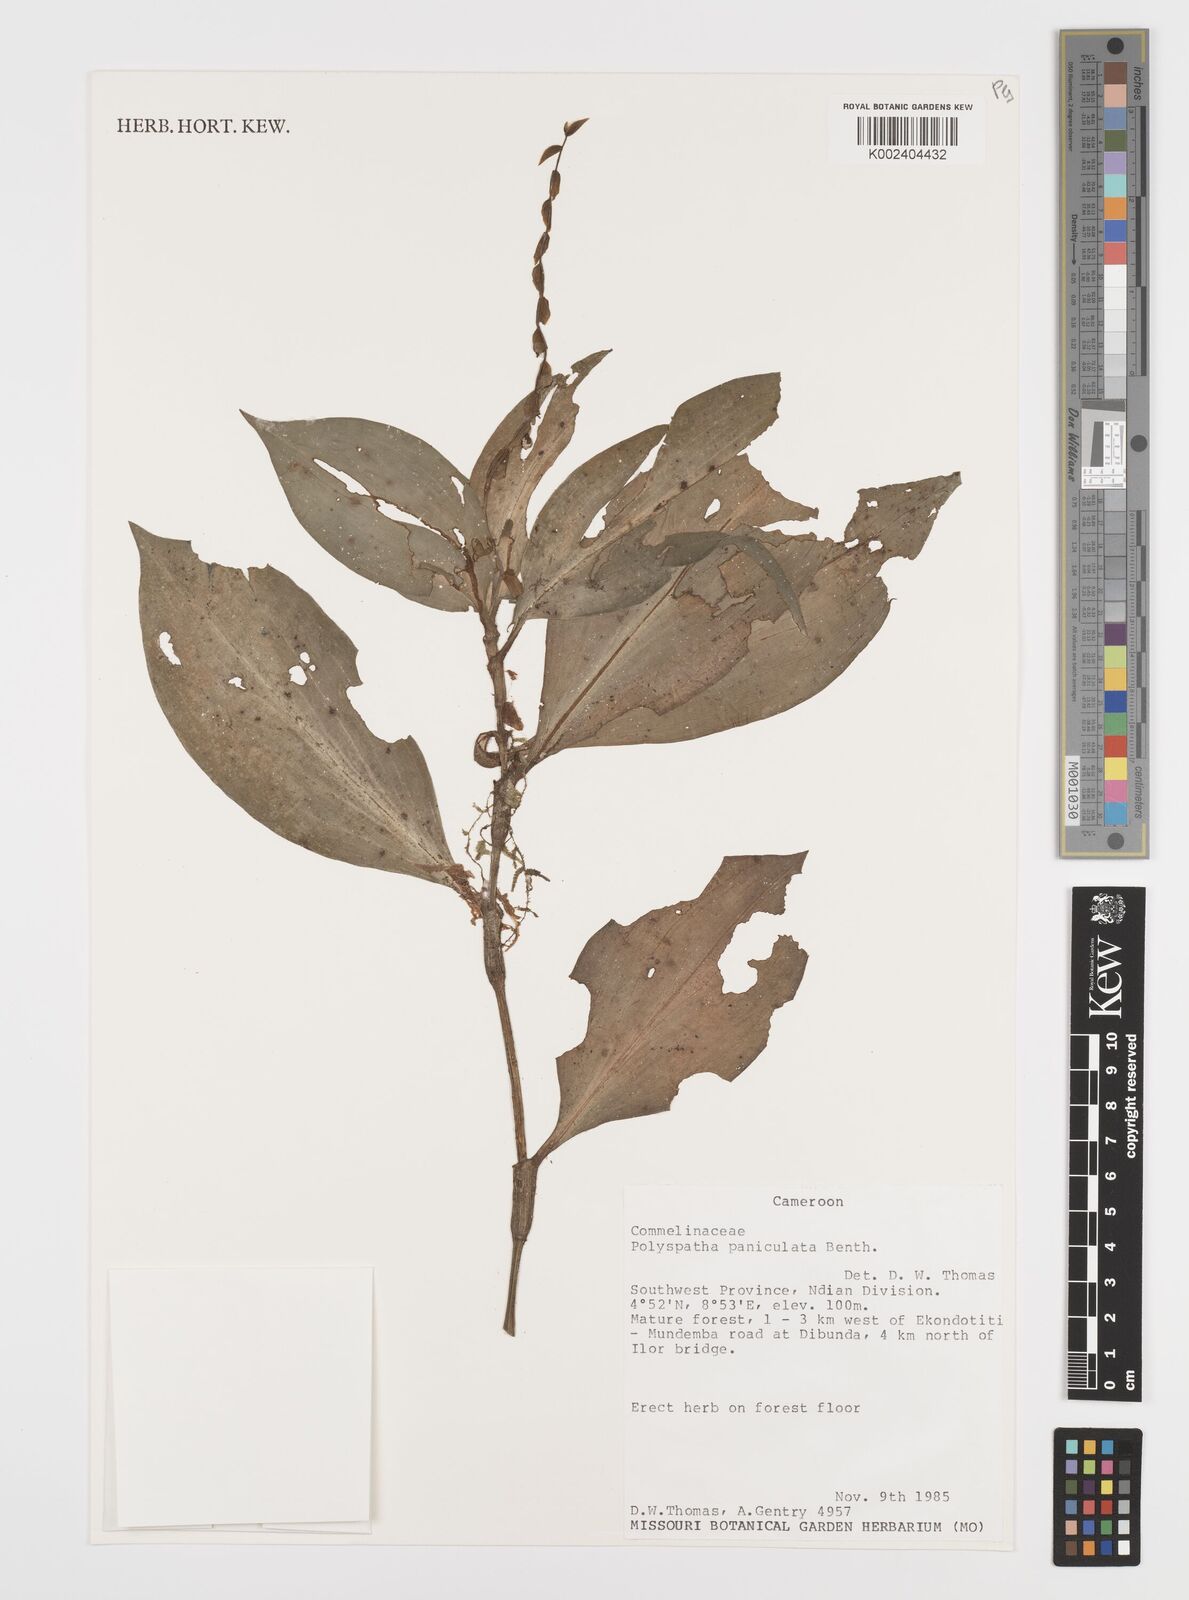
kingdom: Plantae
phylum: Tracheophyta
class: Liliopsida
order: Commelinales
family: Commelinaceae
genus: Polyspatha
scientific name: Polyspatha paniculata
